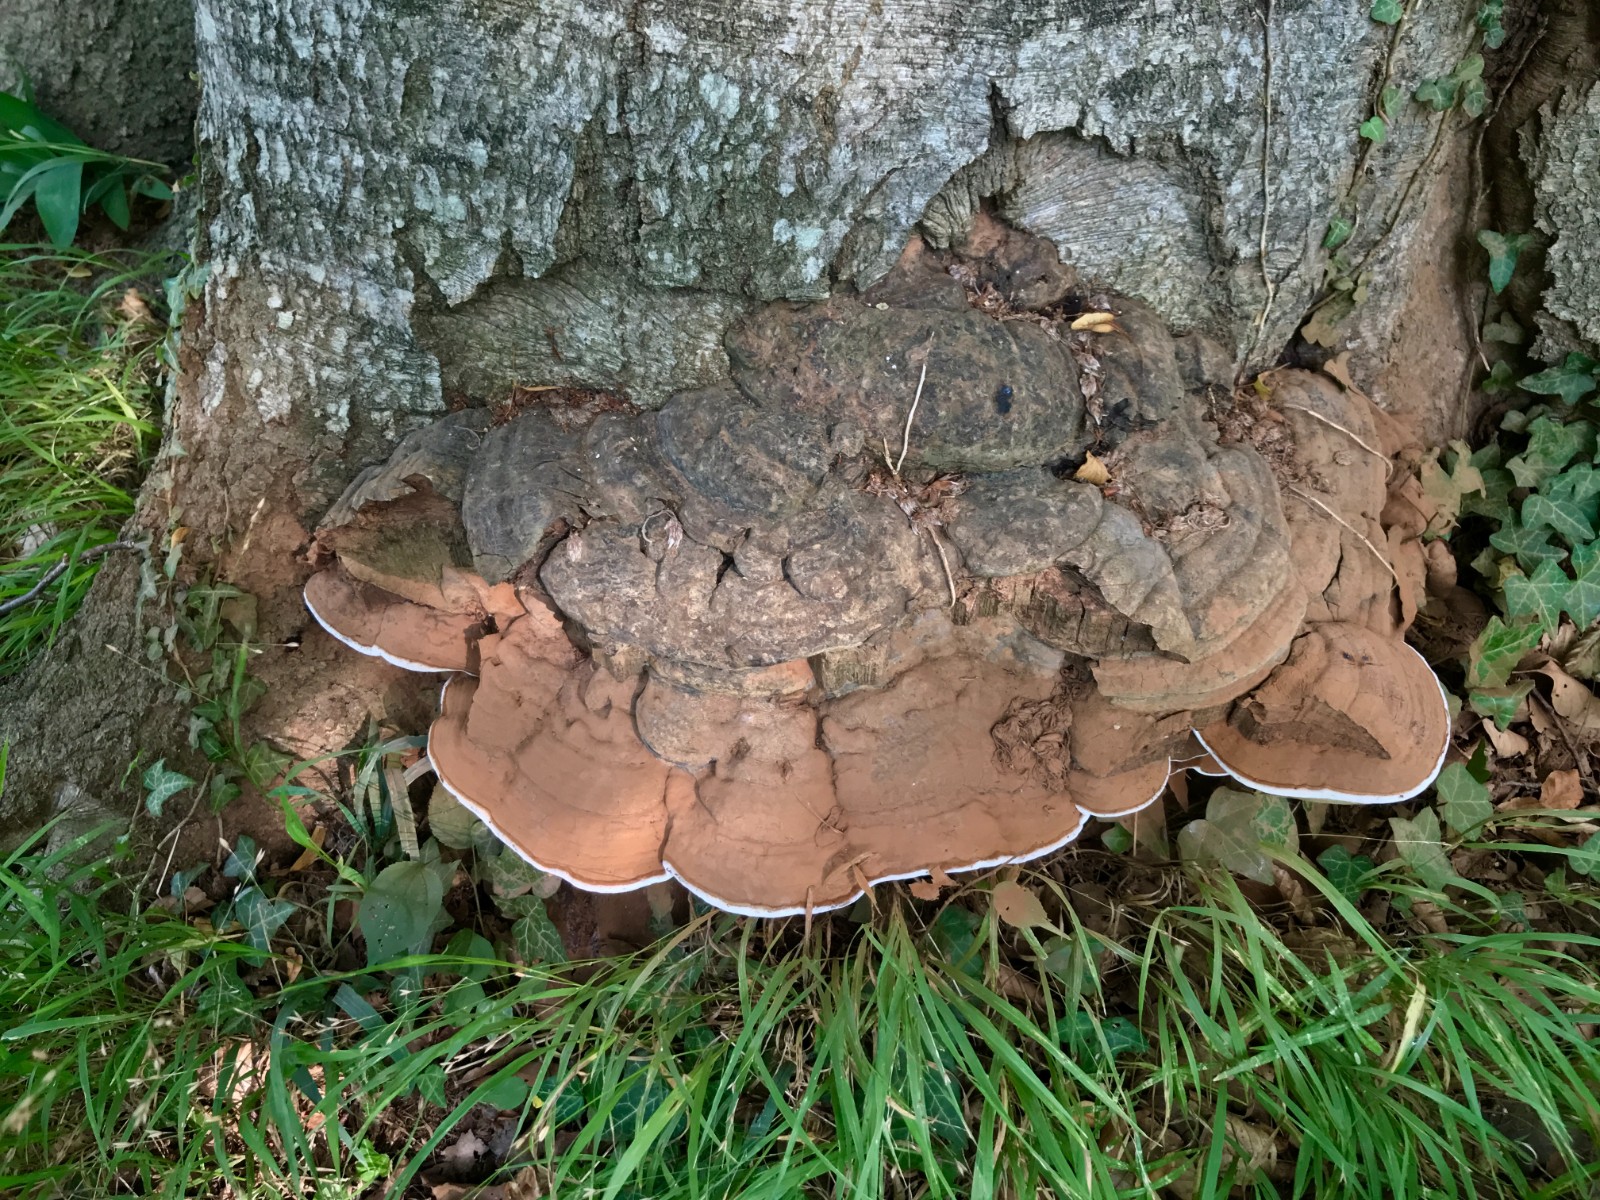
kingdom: Fungi
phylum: Basidiomycota
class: Agaricomycetes
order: Polyporales
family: Polyporaceae
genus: Ganoderma
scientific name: Ganoderma pfeifferi
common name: kobberrød lakporesvamp
